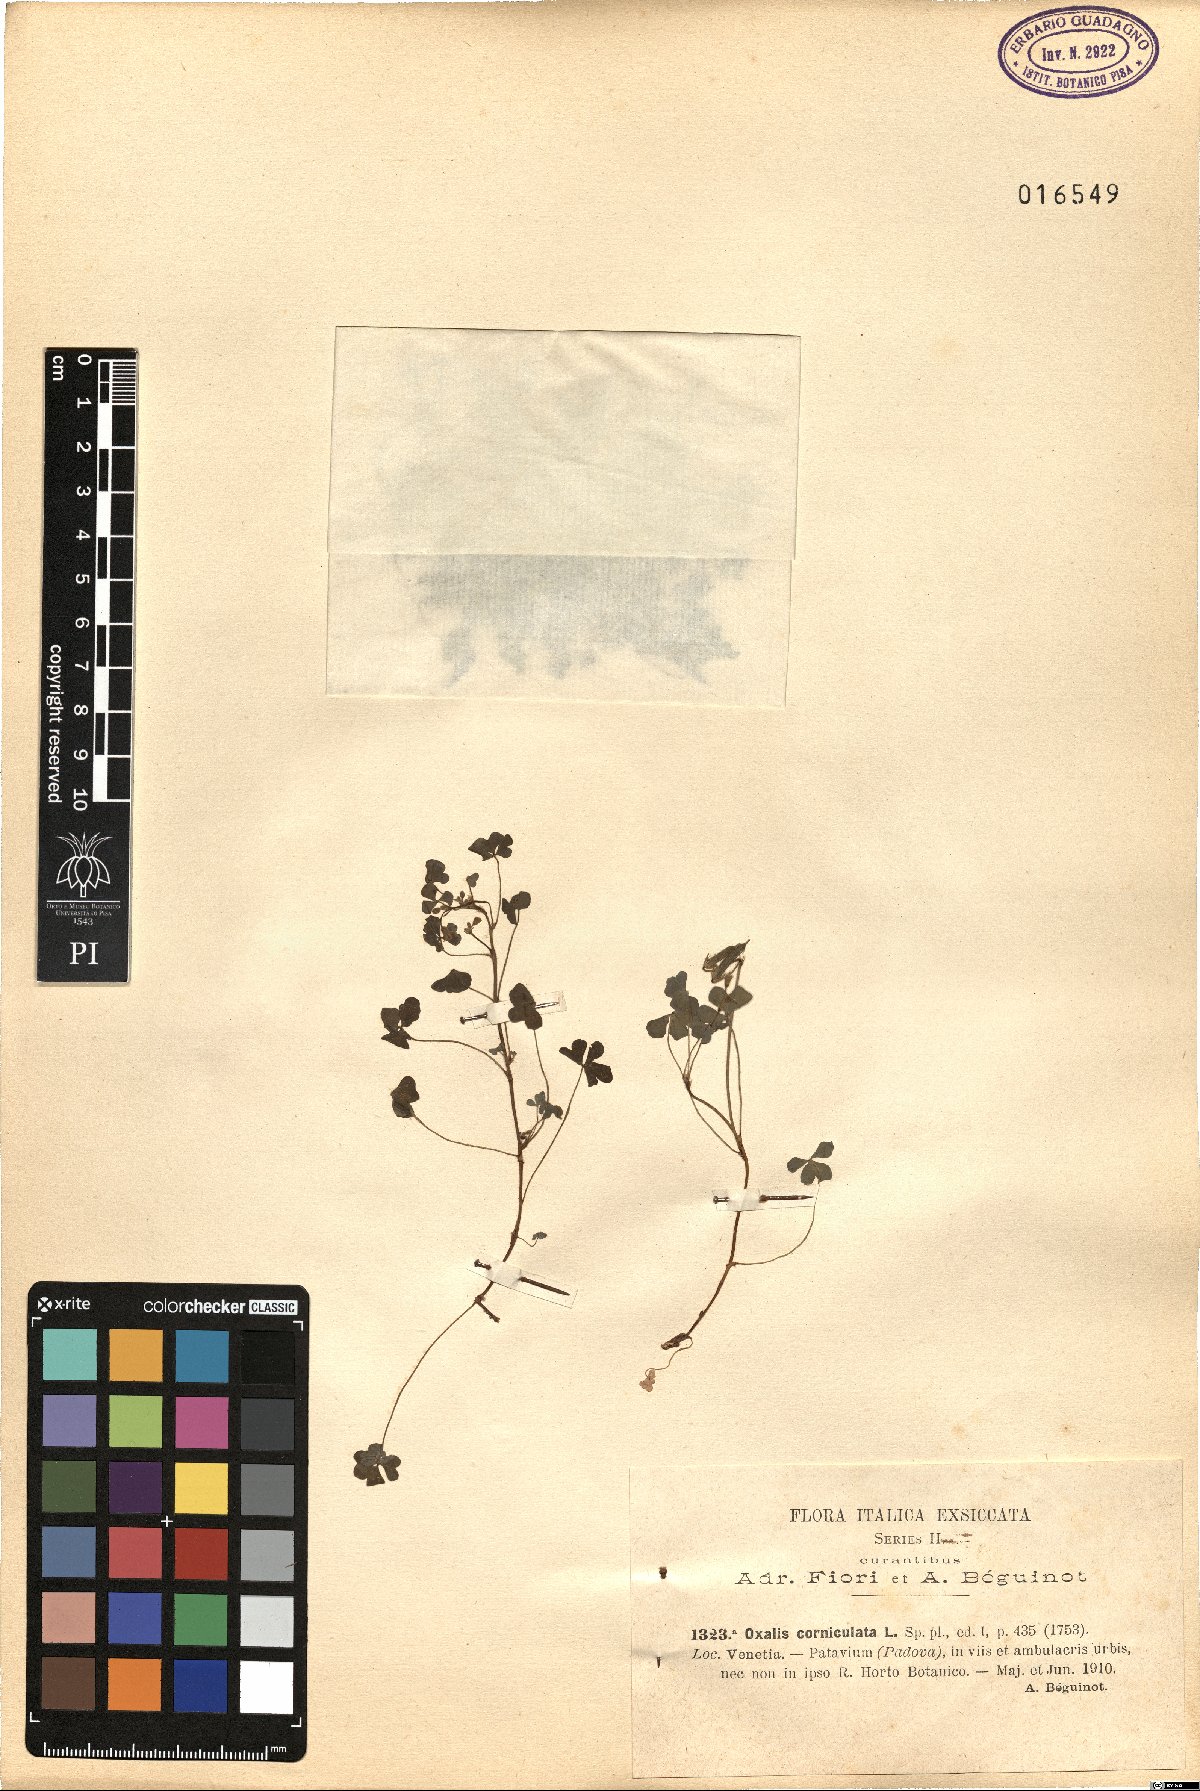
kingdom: Plantae
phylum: Tracheophyta
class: Magnoliopsida
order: Oxalidales
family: Oxalidaceae
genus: Oxalis
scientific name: Oxalis corniculata
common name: Procumbent yellow-sorrel
